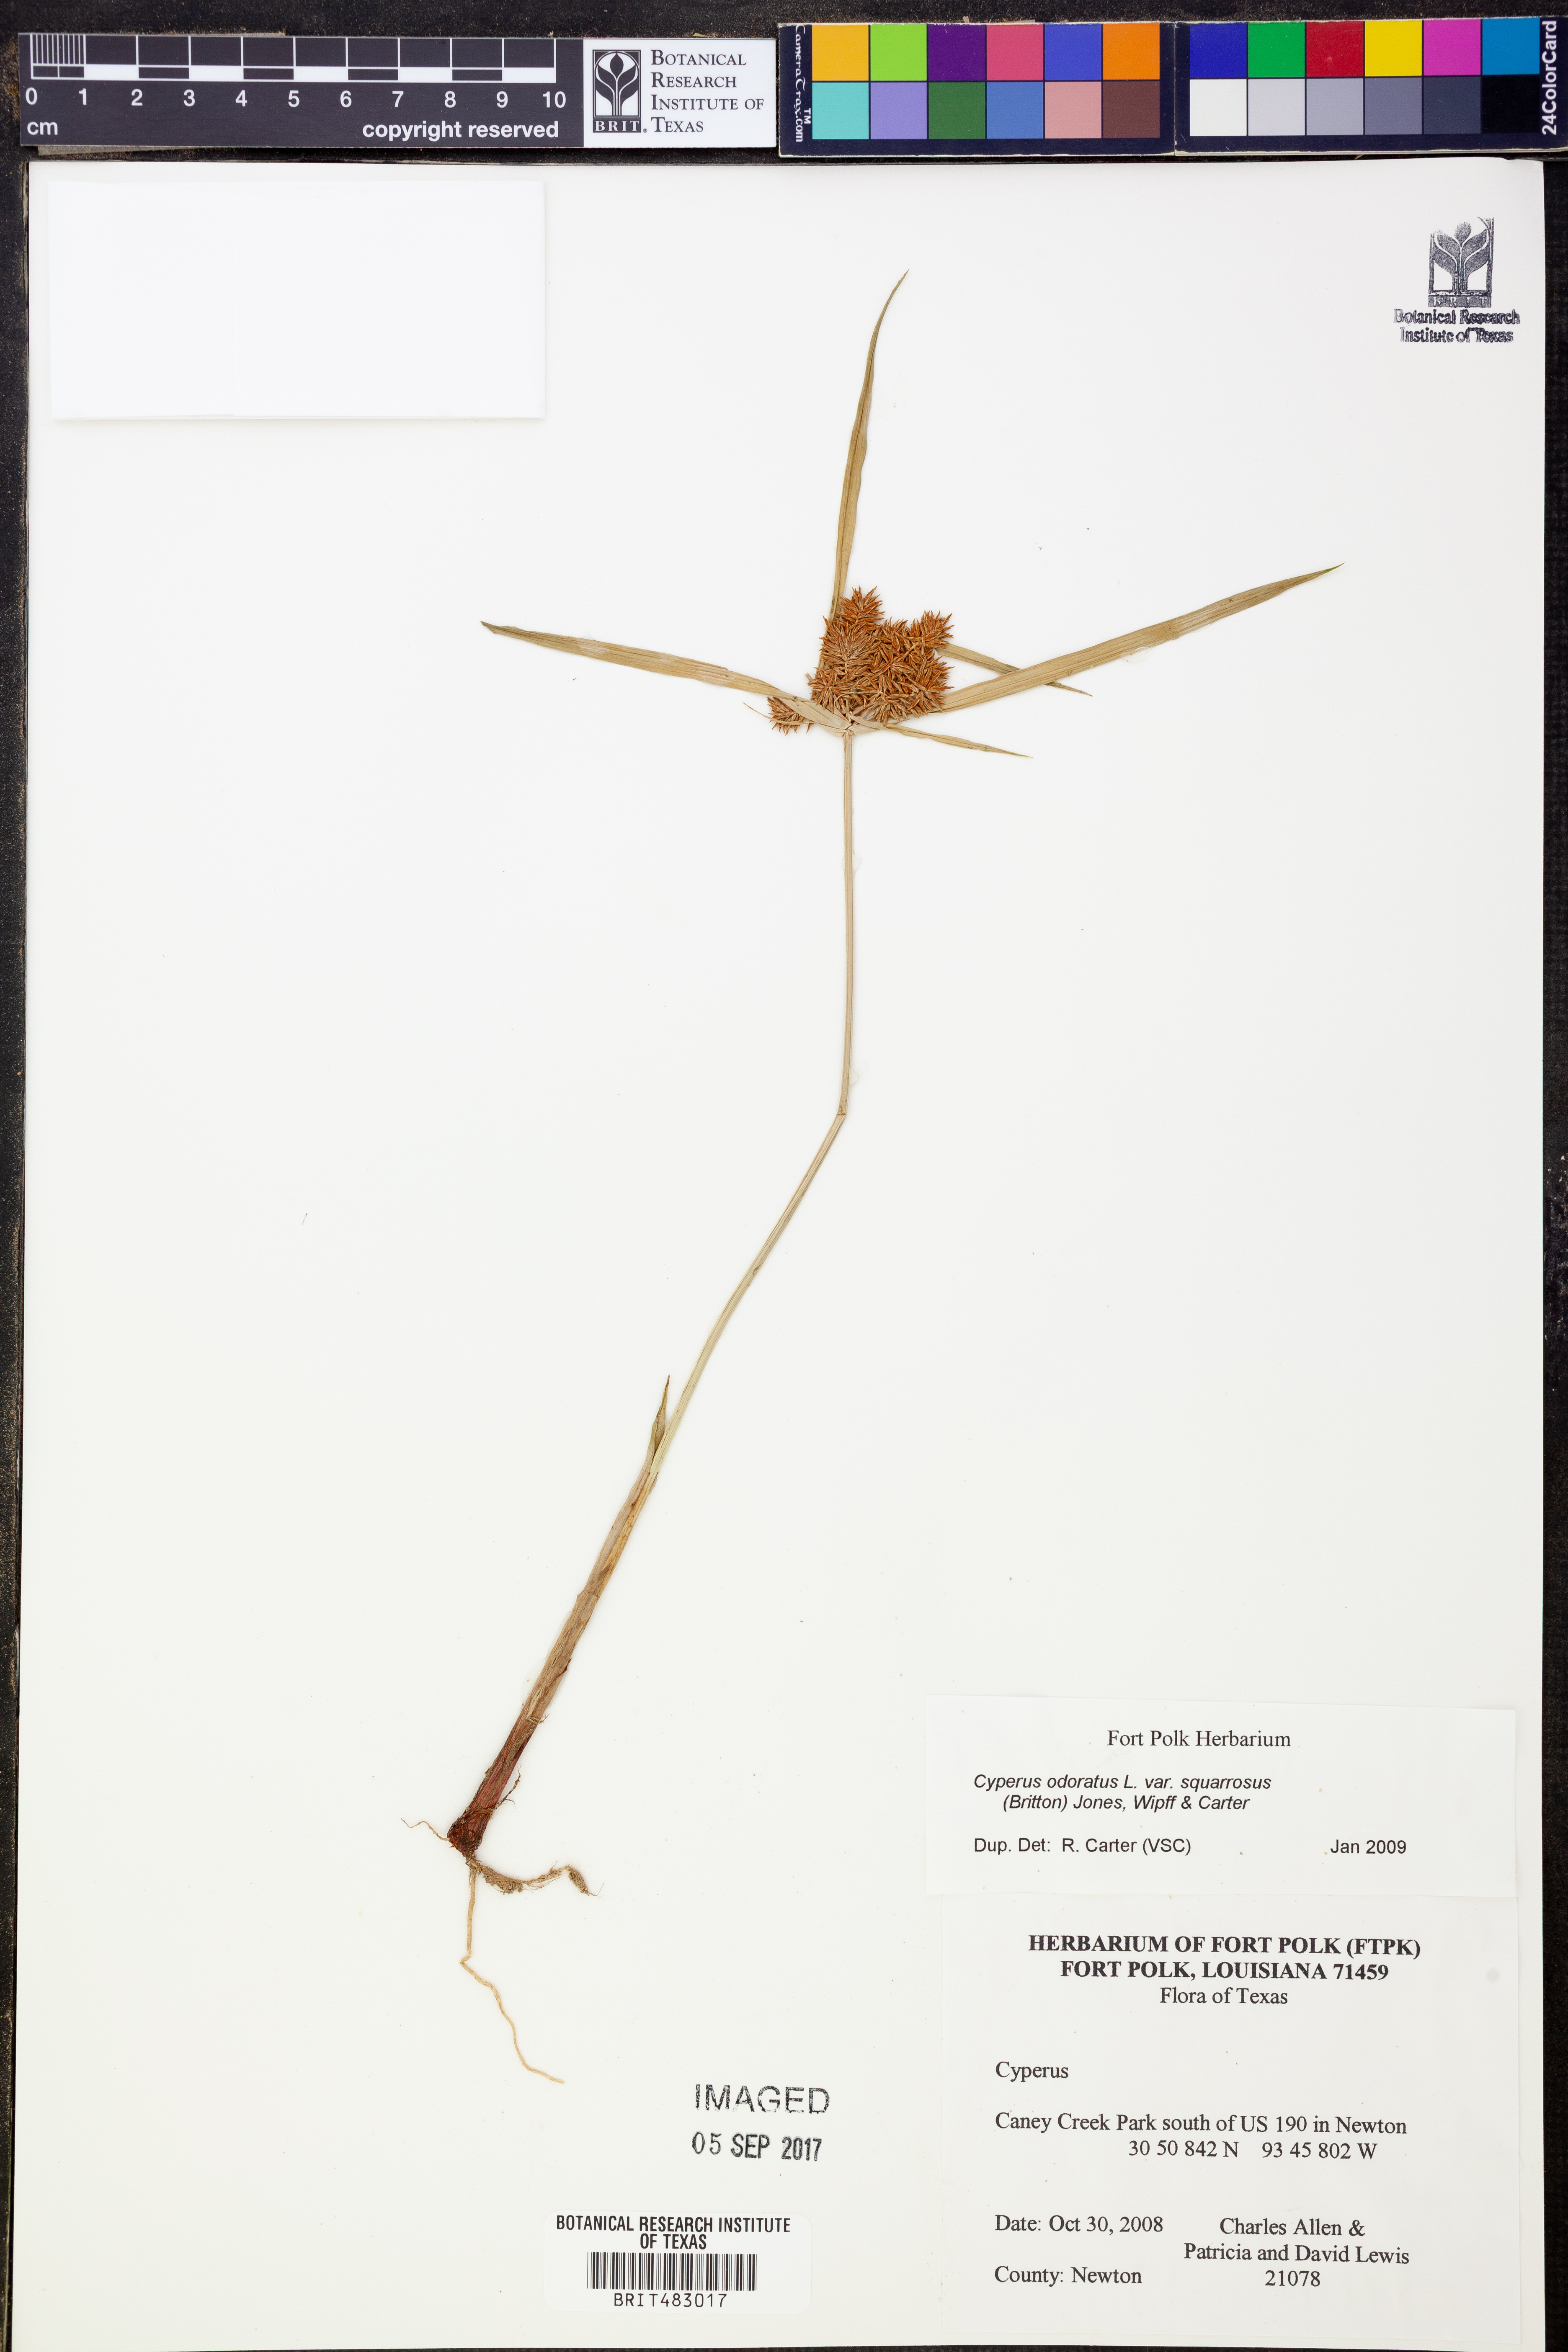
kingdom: Plantae
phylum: Tracheophyta
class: Liliopsida
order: Poales
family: Cyperaceae
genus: Cyperus
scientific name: Cyperus odoratus
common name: Fragrant flatsedge
